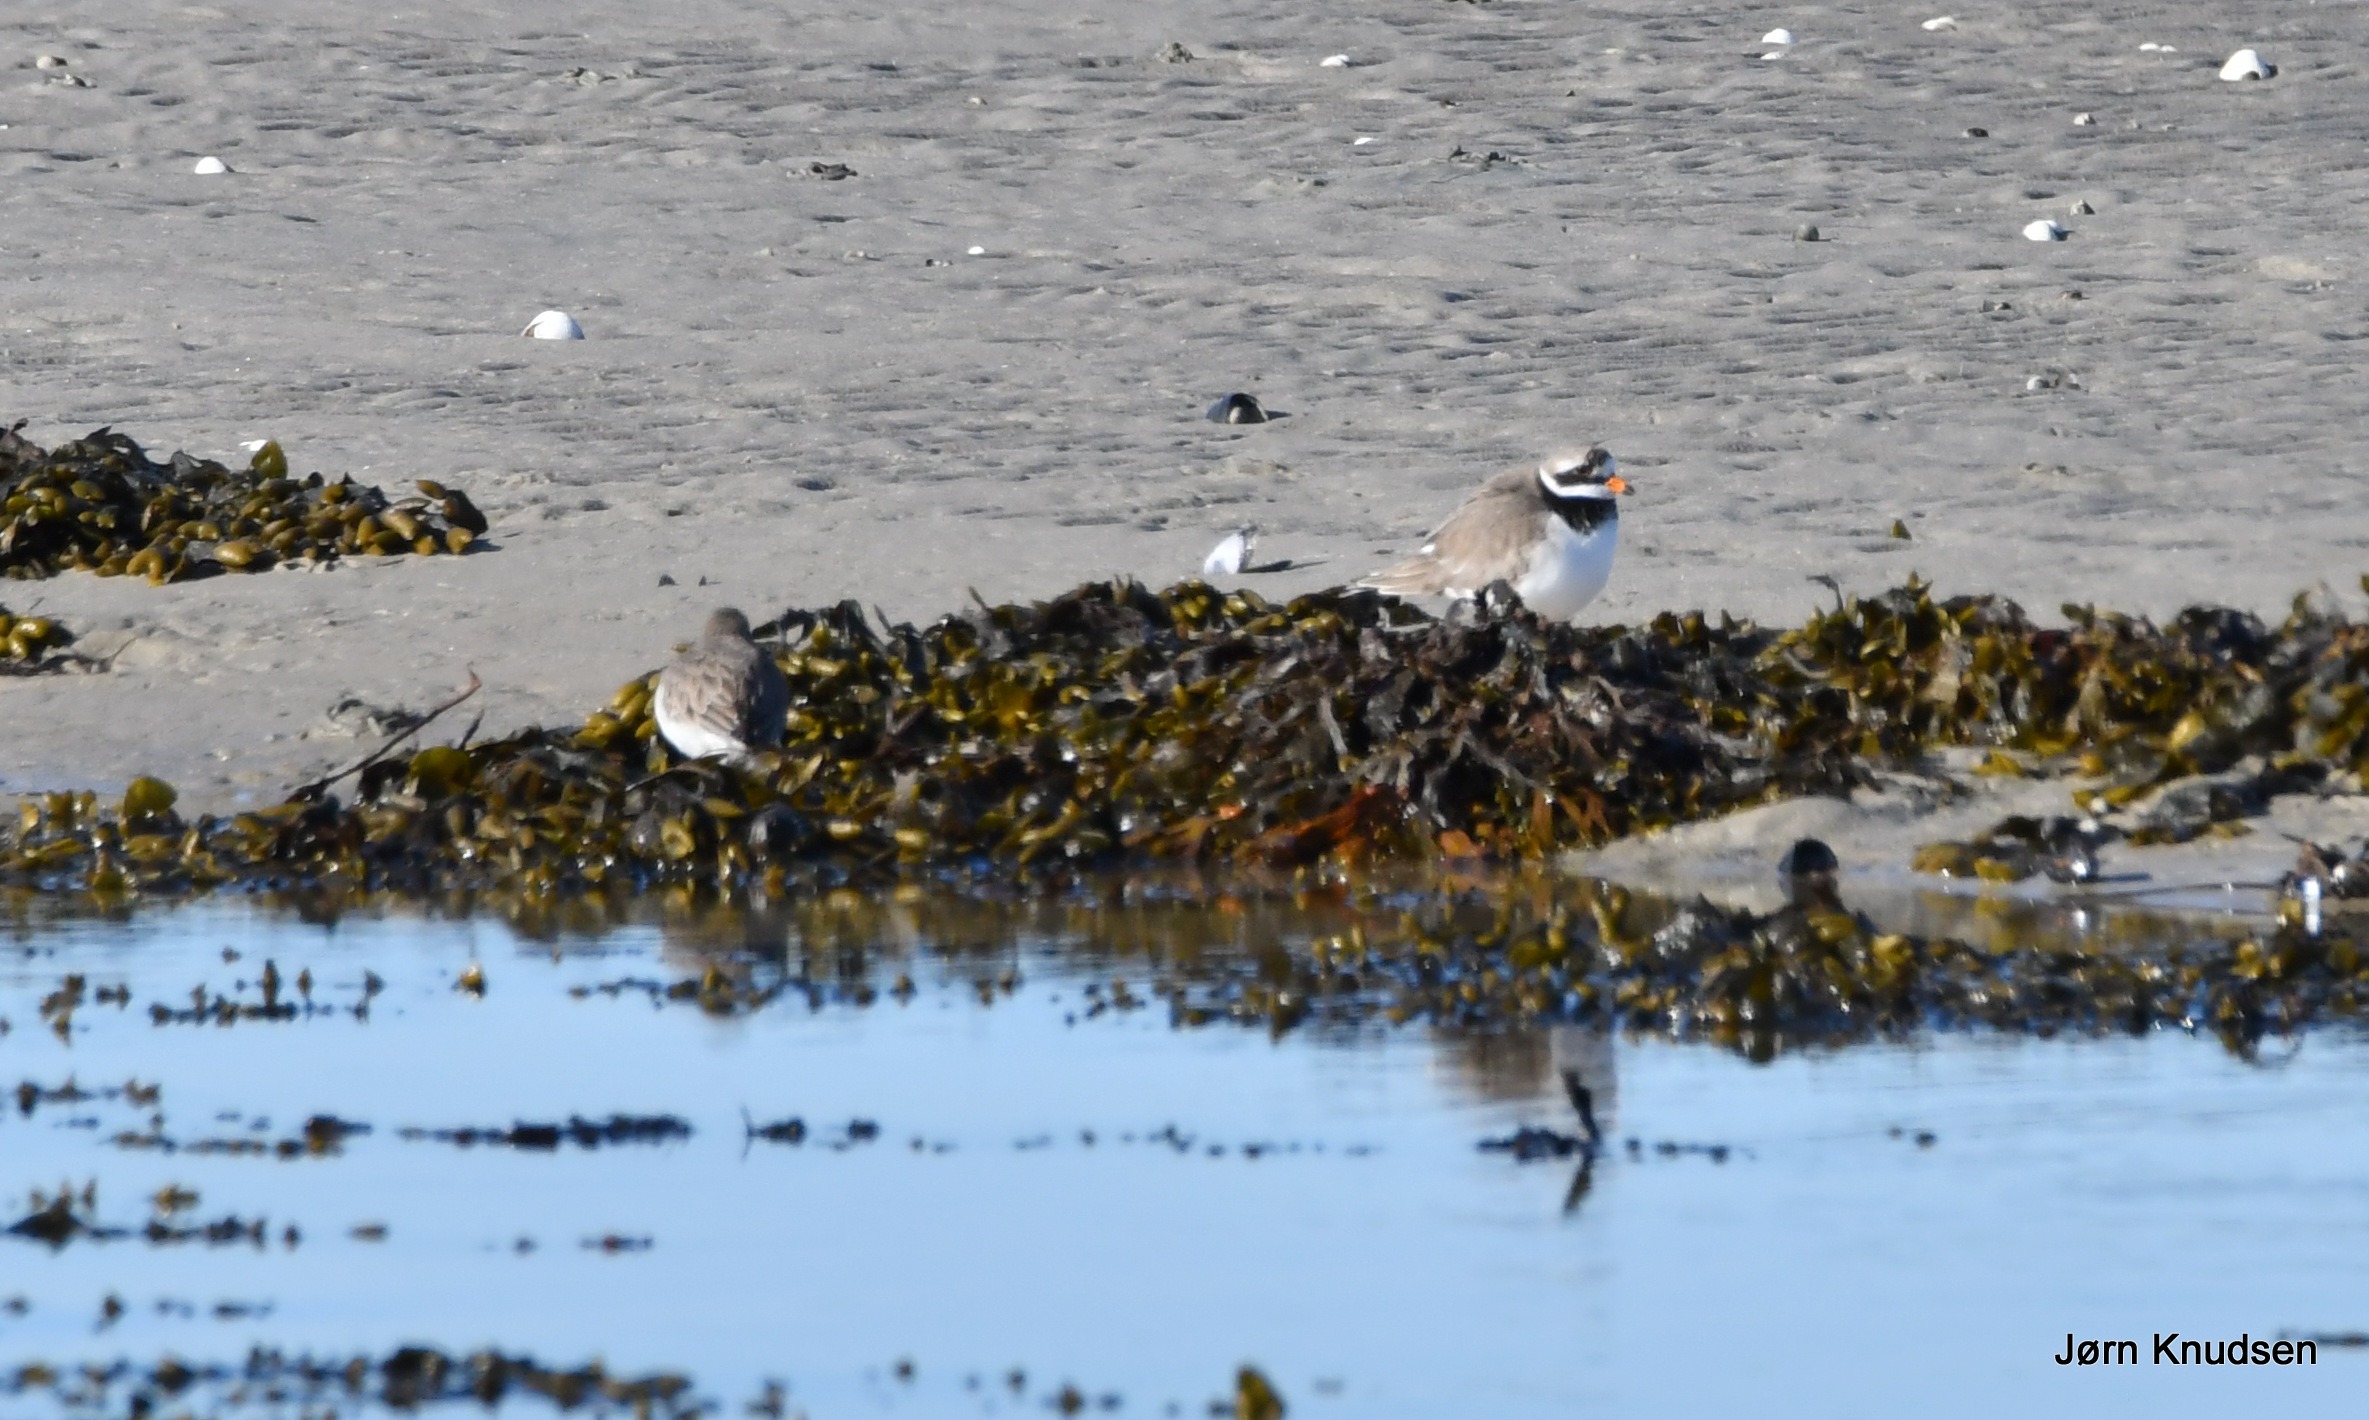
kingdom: Animalia
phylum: Chordata
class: Aves
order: Charadriiformes
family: Charadriidae
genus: Charadrius
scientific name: Charadrius hiaticula
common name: Stor præstekrave
